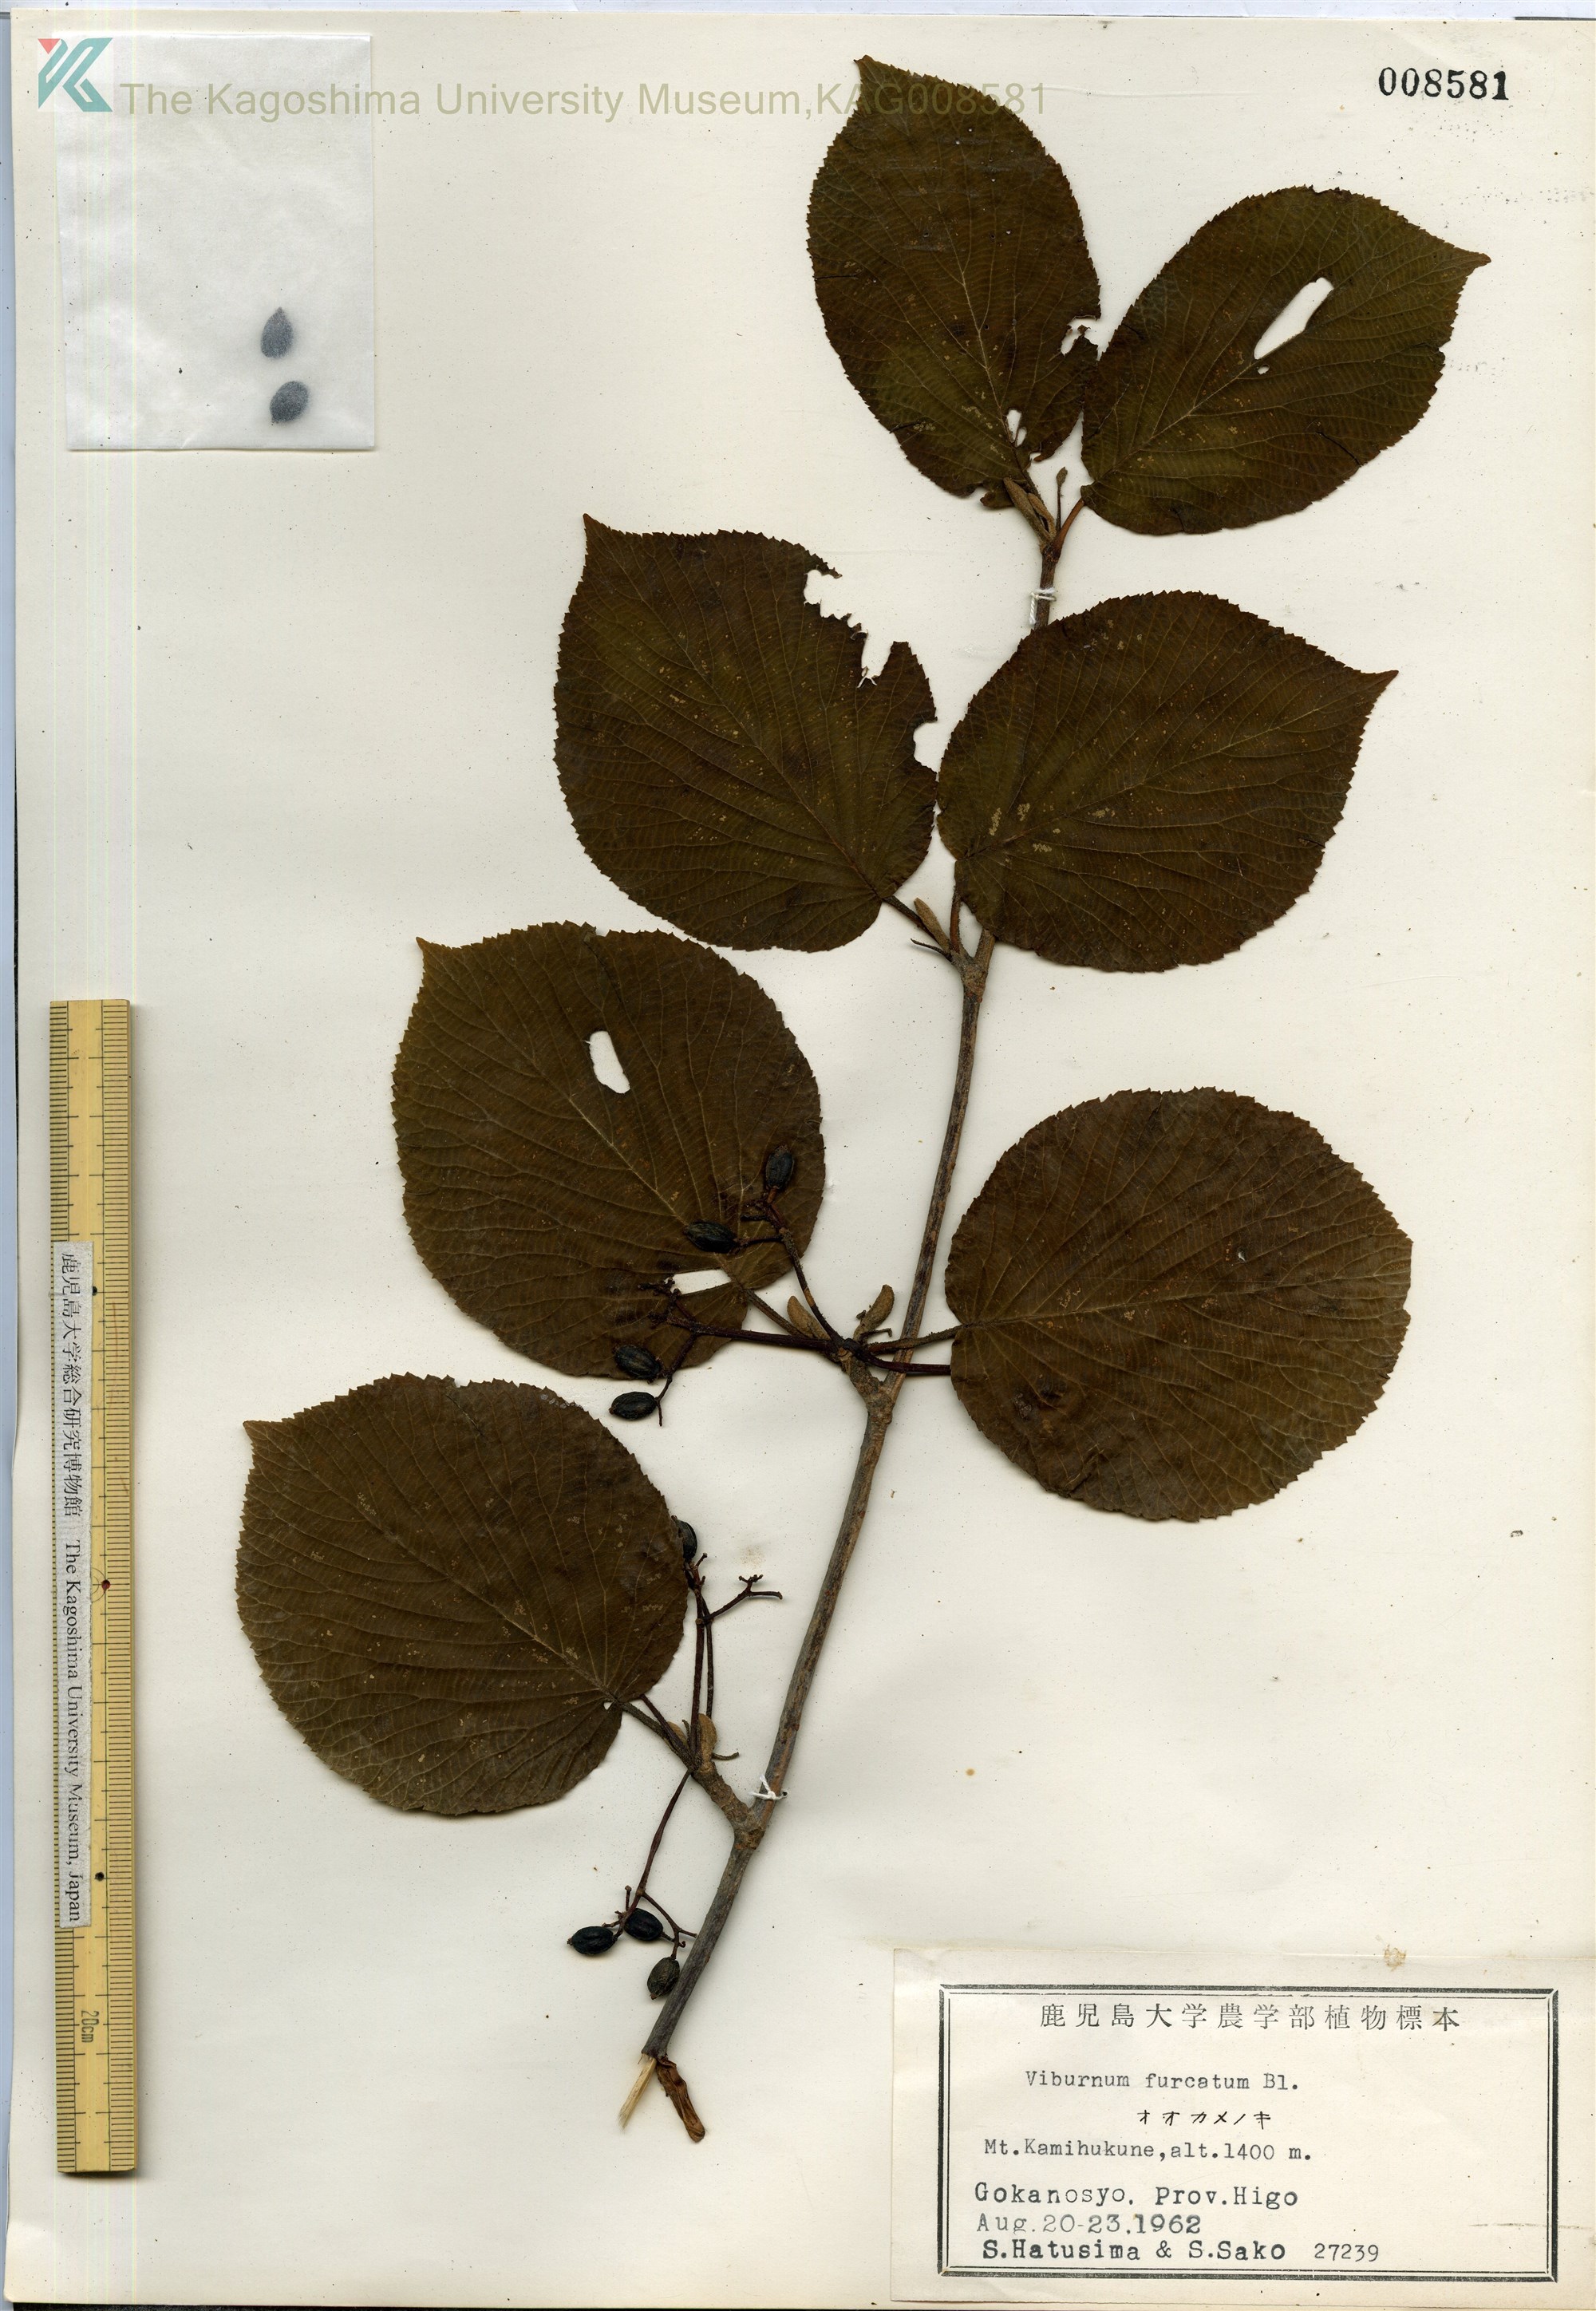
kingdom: Plantae
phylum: Tracheophyta
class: Magnoliopsida
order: Dipsacales
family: Viburnaceae
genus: Viburnum
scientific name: Viburnum furcatum
